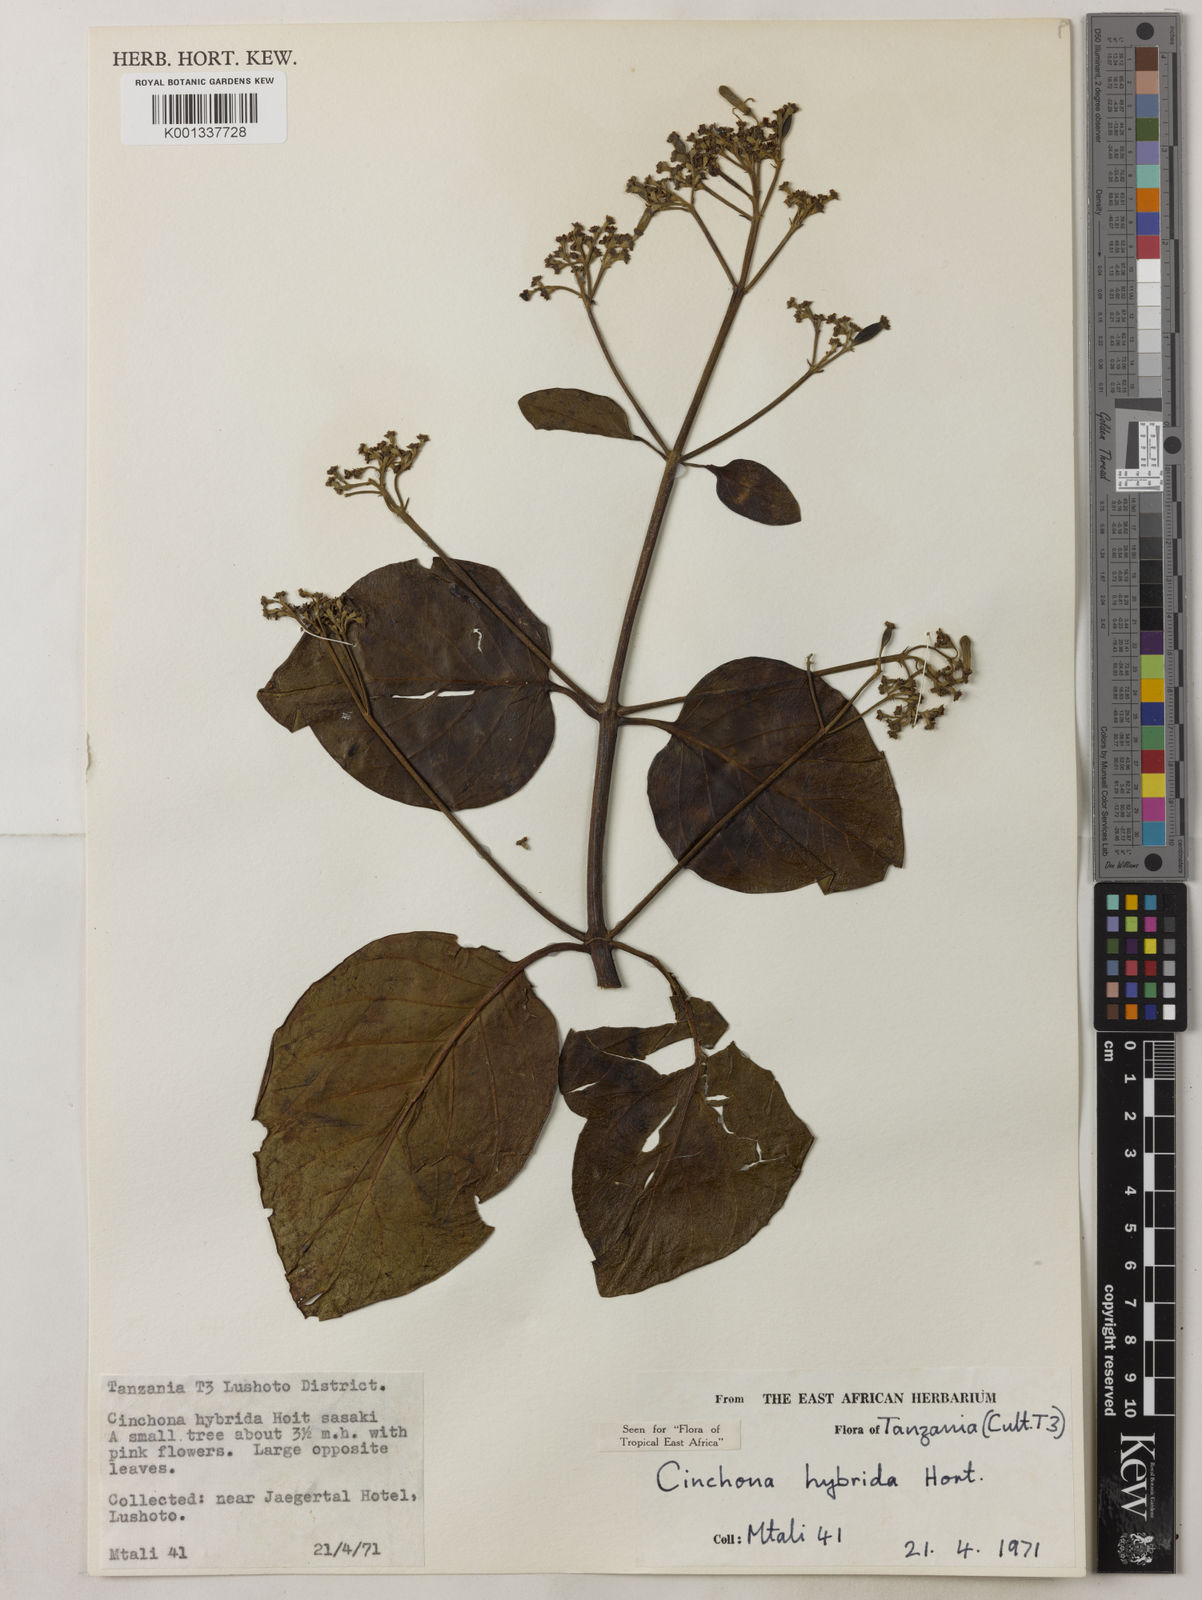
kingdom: Plantae
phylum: Tracheophyta
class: Magnoliopsida
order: Gentianales
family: Rubiaceae
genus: Cinchona
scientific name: Cinchona
